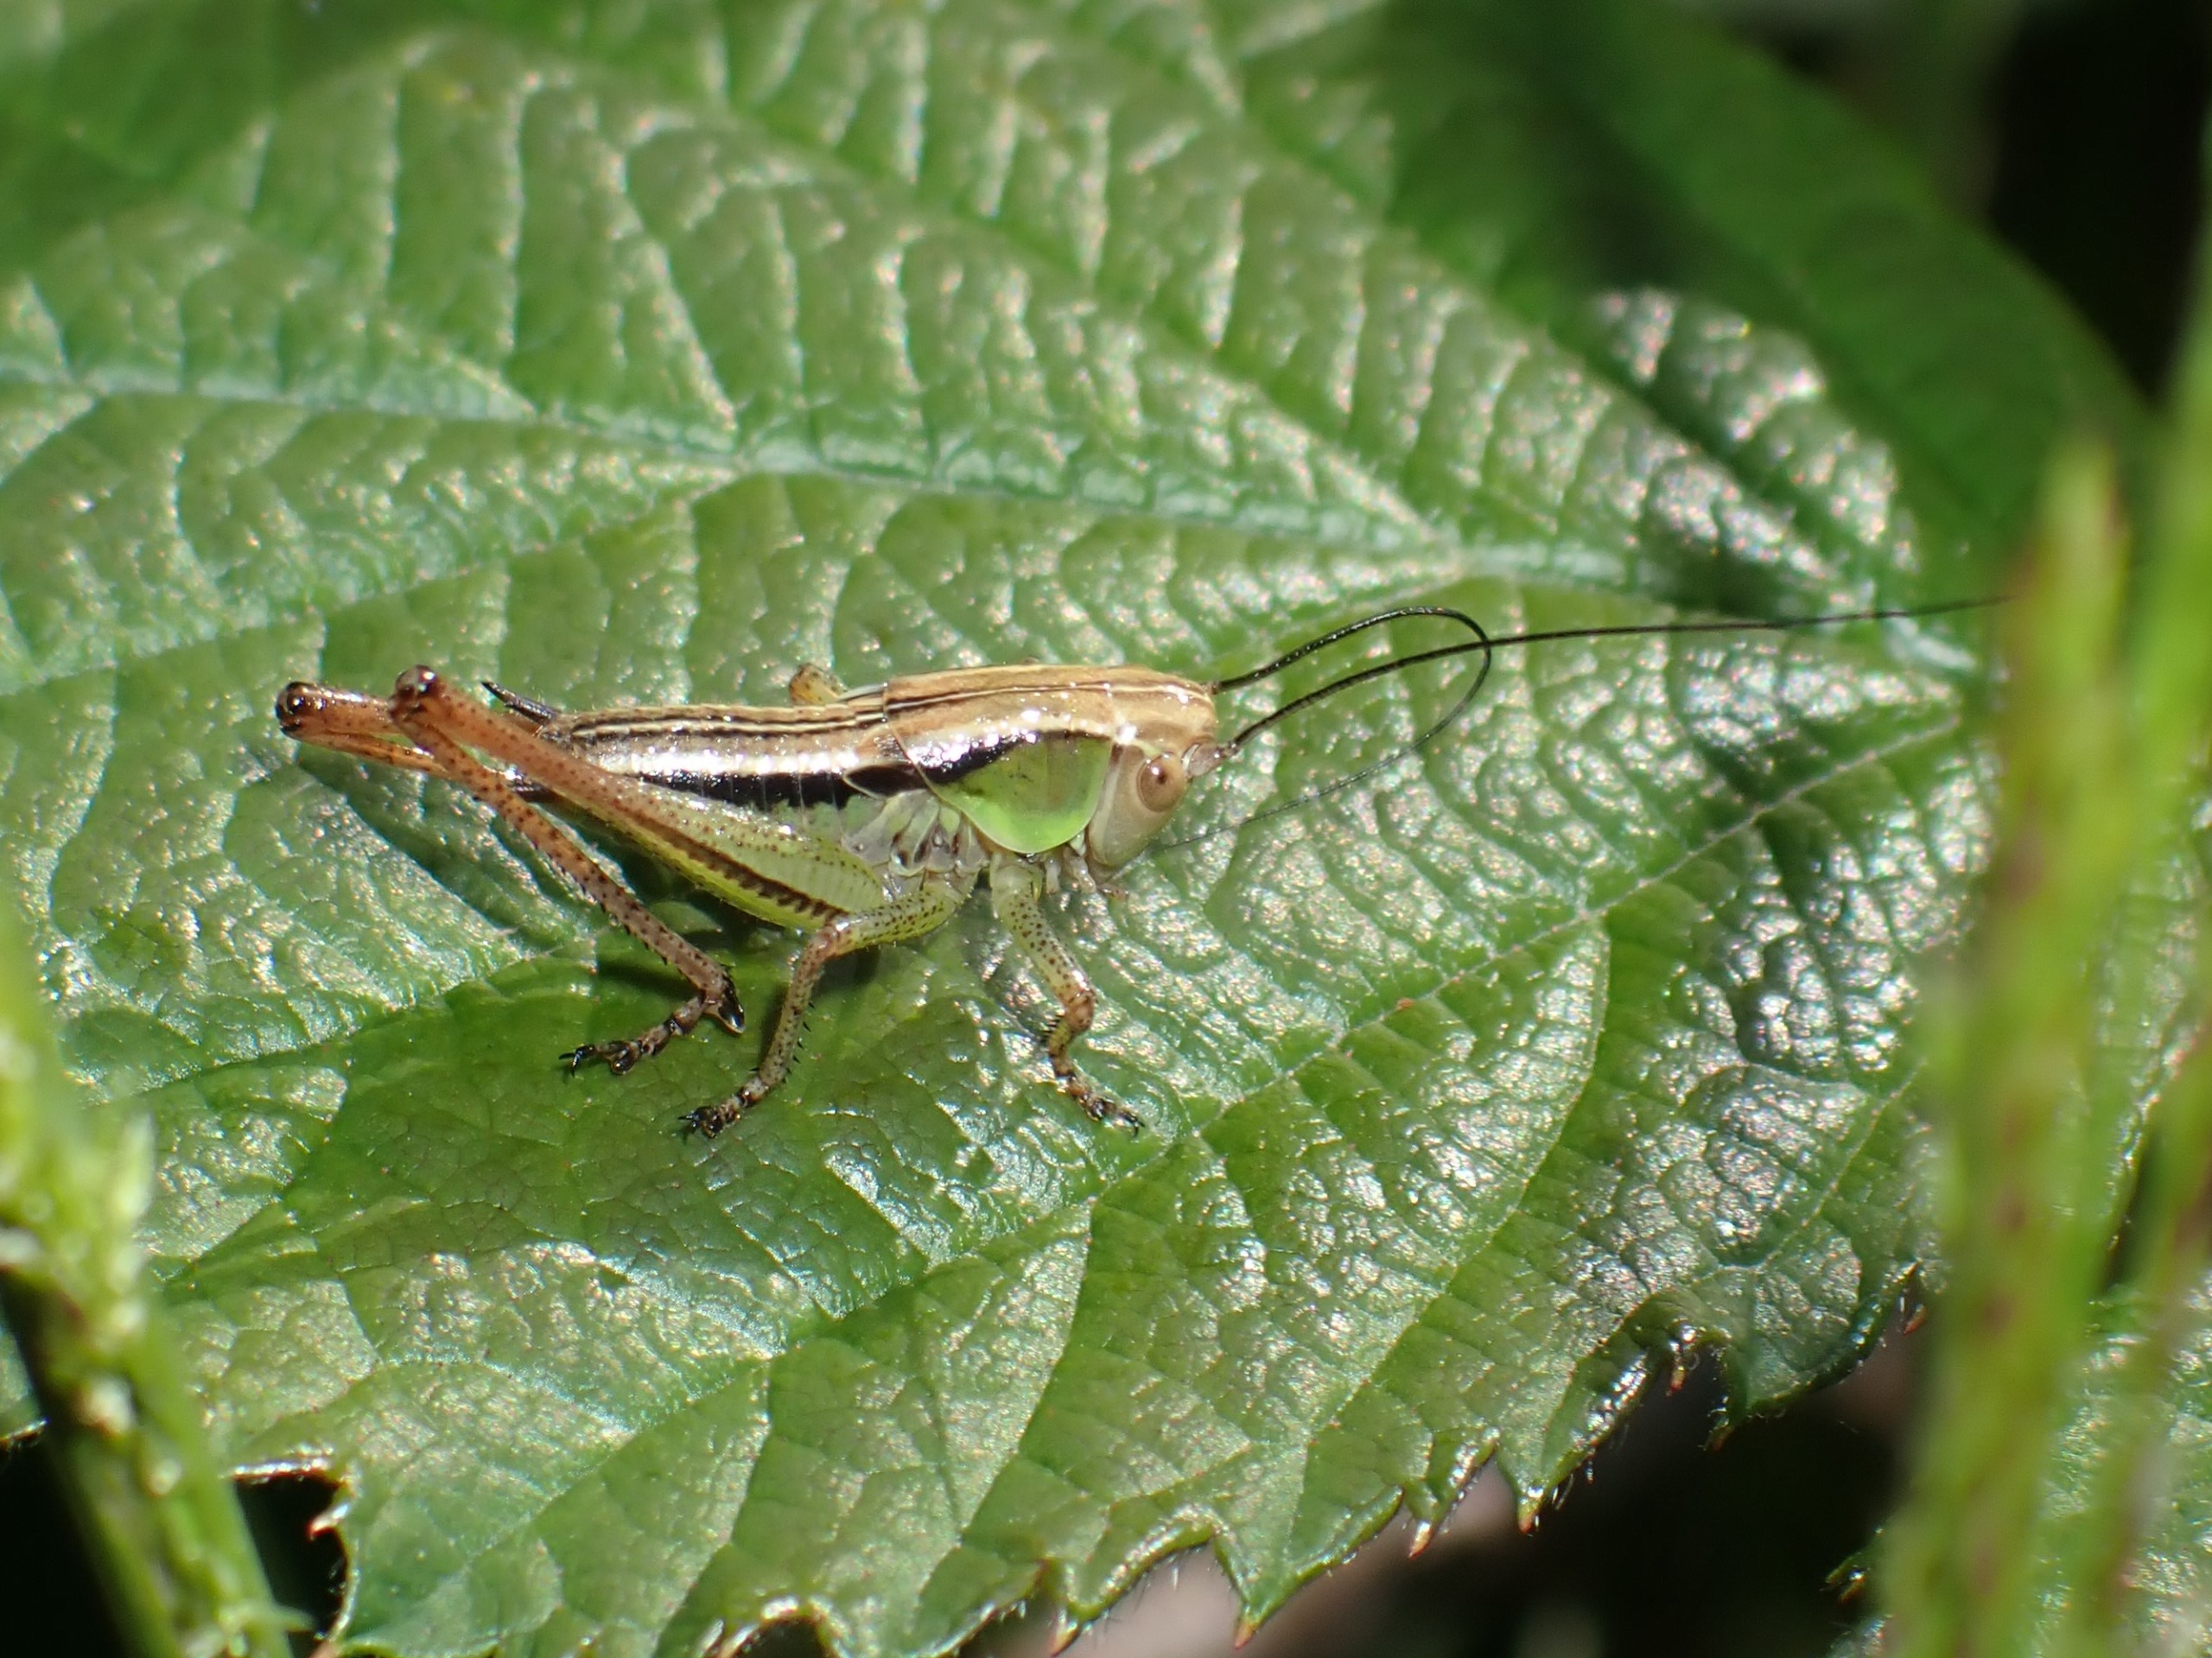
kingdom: Animalia
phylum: Arthropoda
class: Insecta
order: Orthoptera
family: Tettigoniidae
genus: Roeseliana
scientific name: Roeseliana roeselii
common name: Cikadegræshoppe
